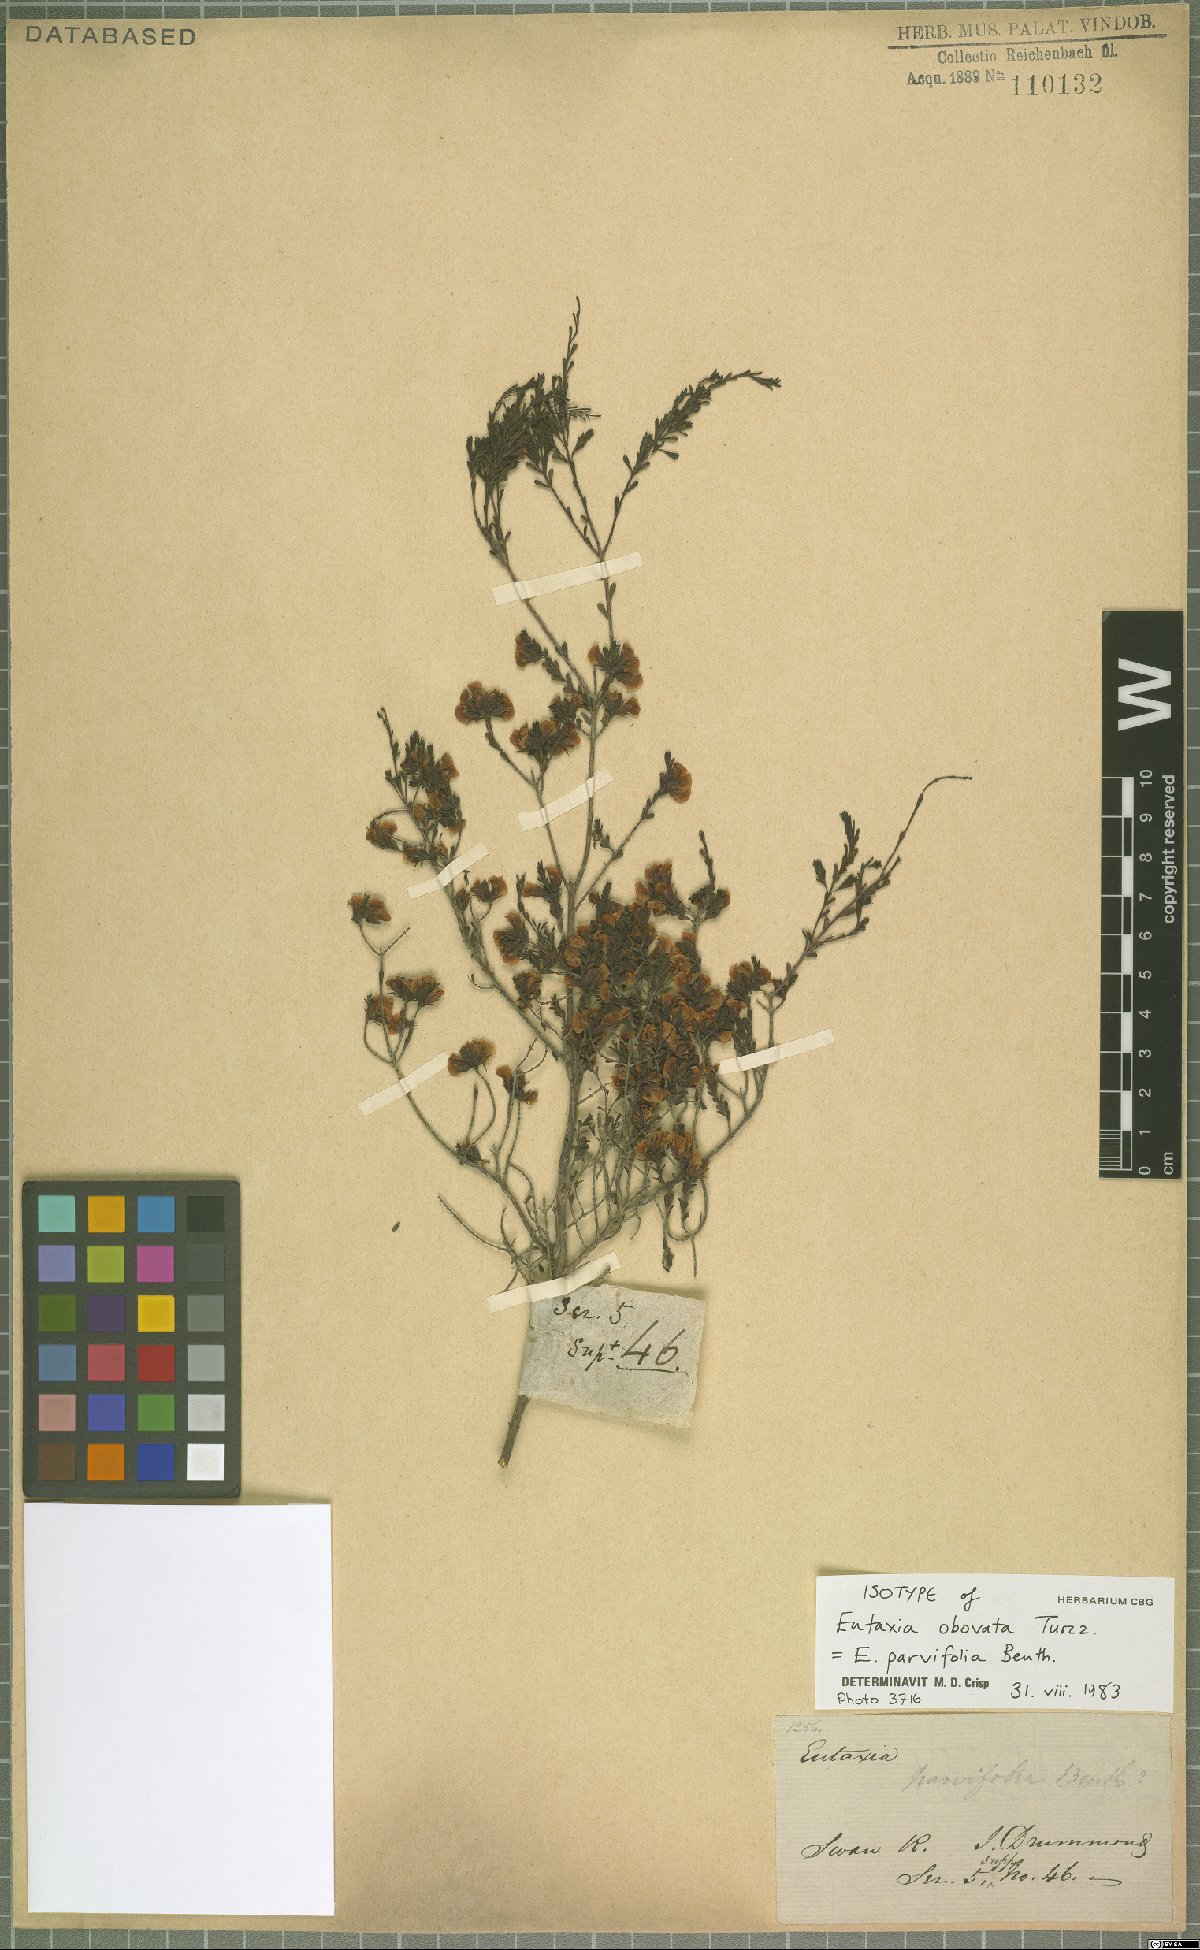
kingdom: Plantae
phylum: Tracheophyta
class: Magnoliopsida
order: Fabales
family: Fabaceae
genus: Eutaxia
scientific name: Eutaxia parvifolia
